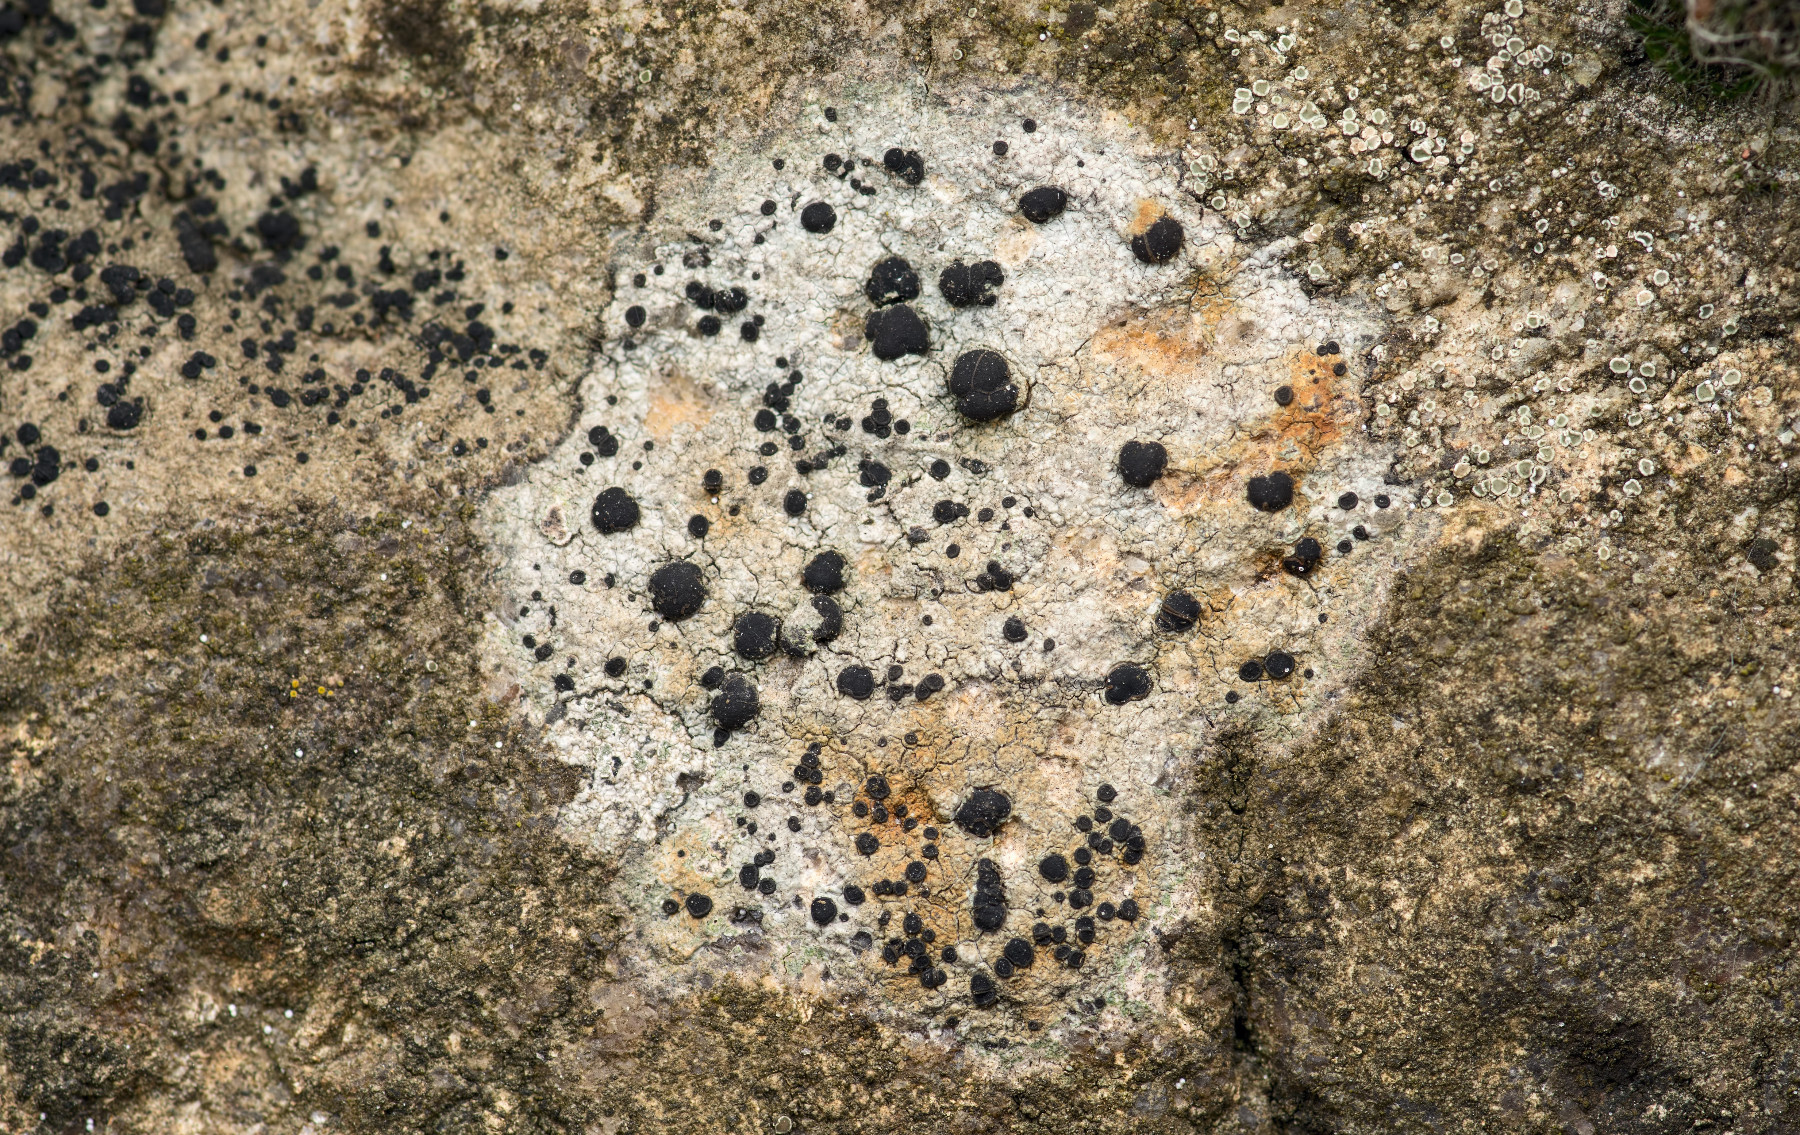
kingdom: Fungi
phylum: Ascomycota
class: Lecanoromycetes
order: Lecideales
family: Lecideaceae
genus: Porpidia
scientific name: Porpidia macrocarpa
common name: almindelig bredskivelav
